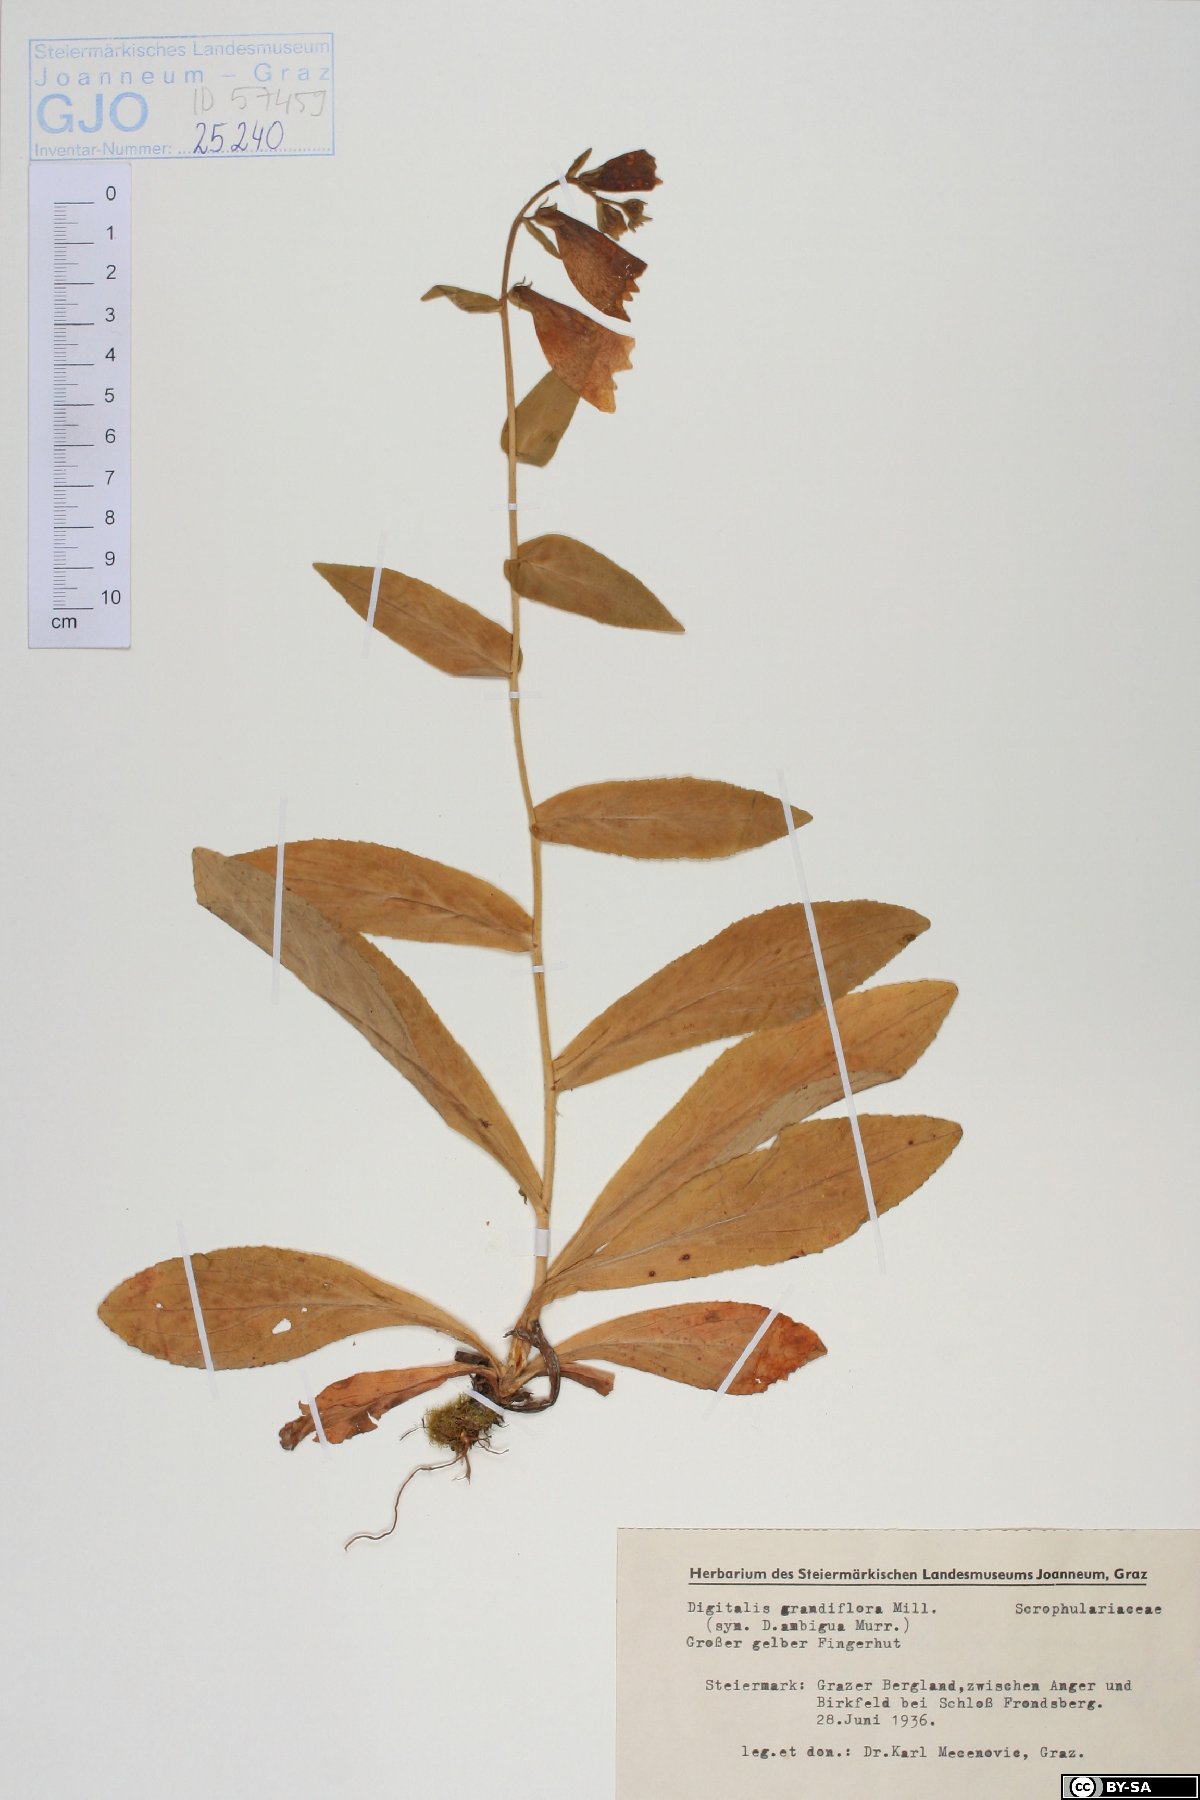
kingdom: Plantae
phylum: Tracheophyta
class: Magnoliopsida
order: Lamiales
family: Plantaginaceae
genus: Digitalis
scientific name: Digitalis grandiflora
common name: Yellow foxglove
